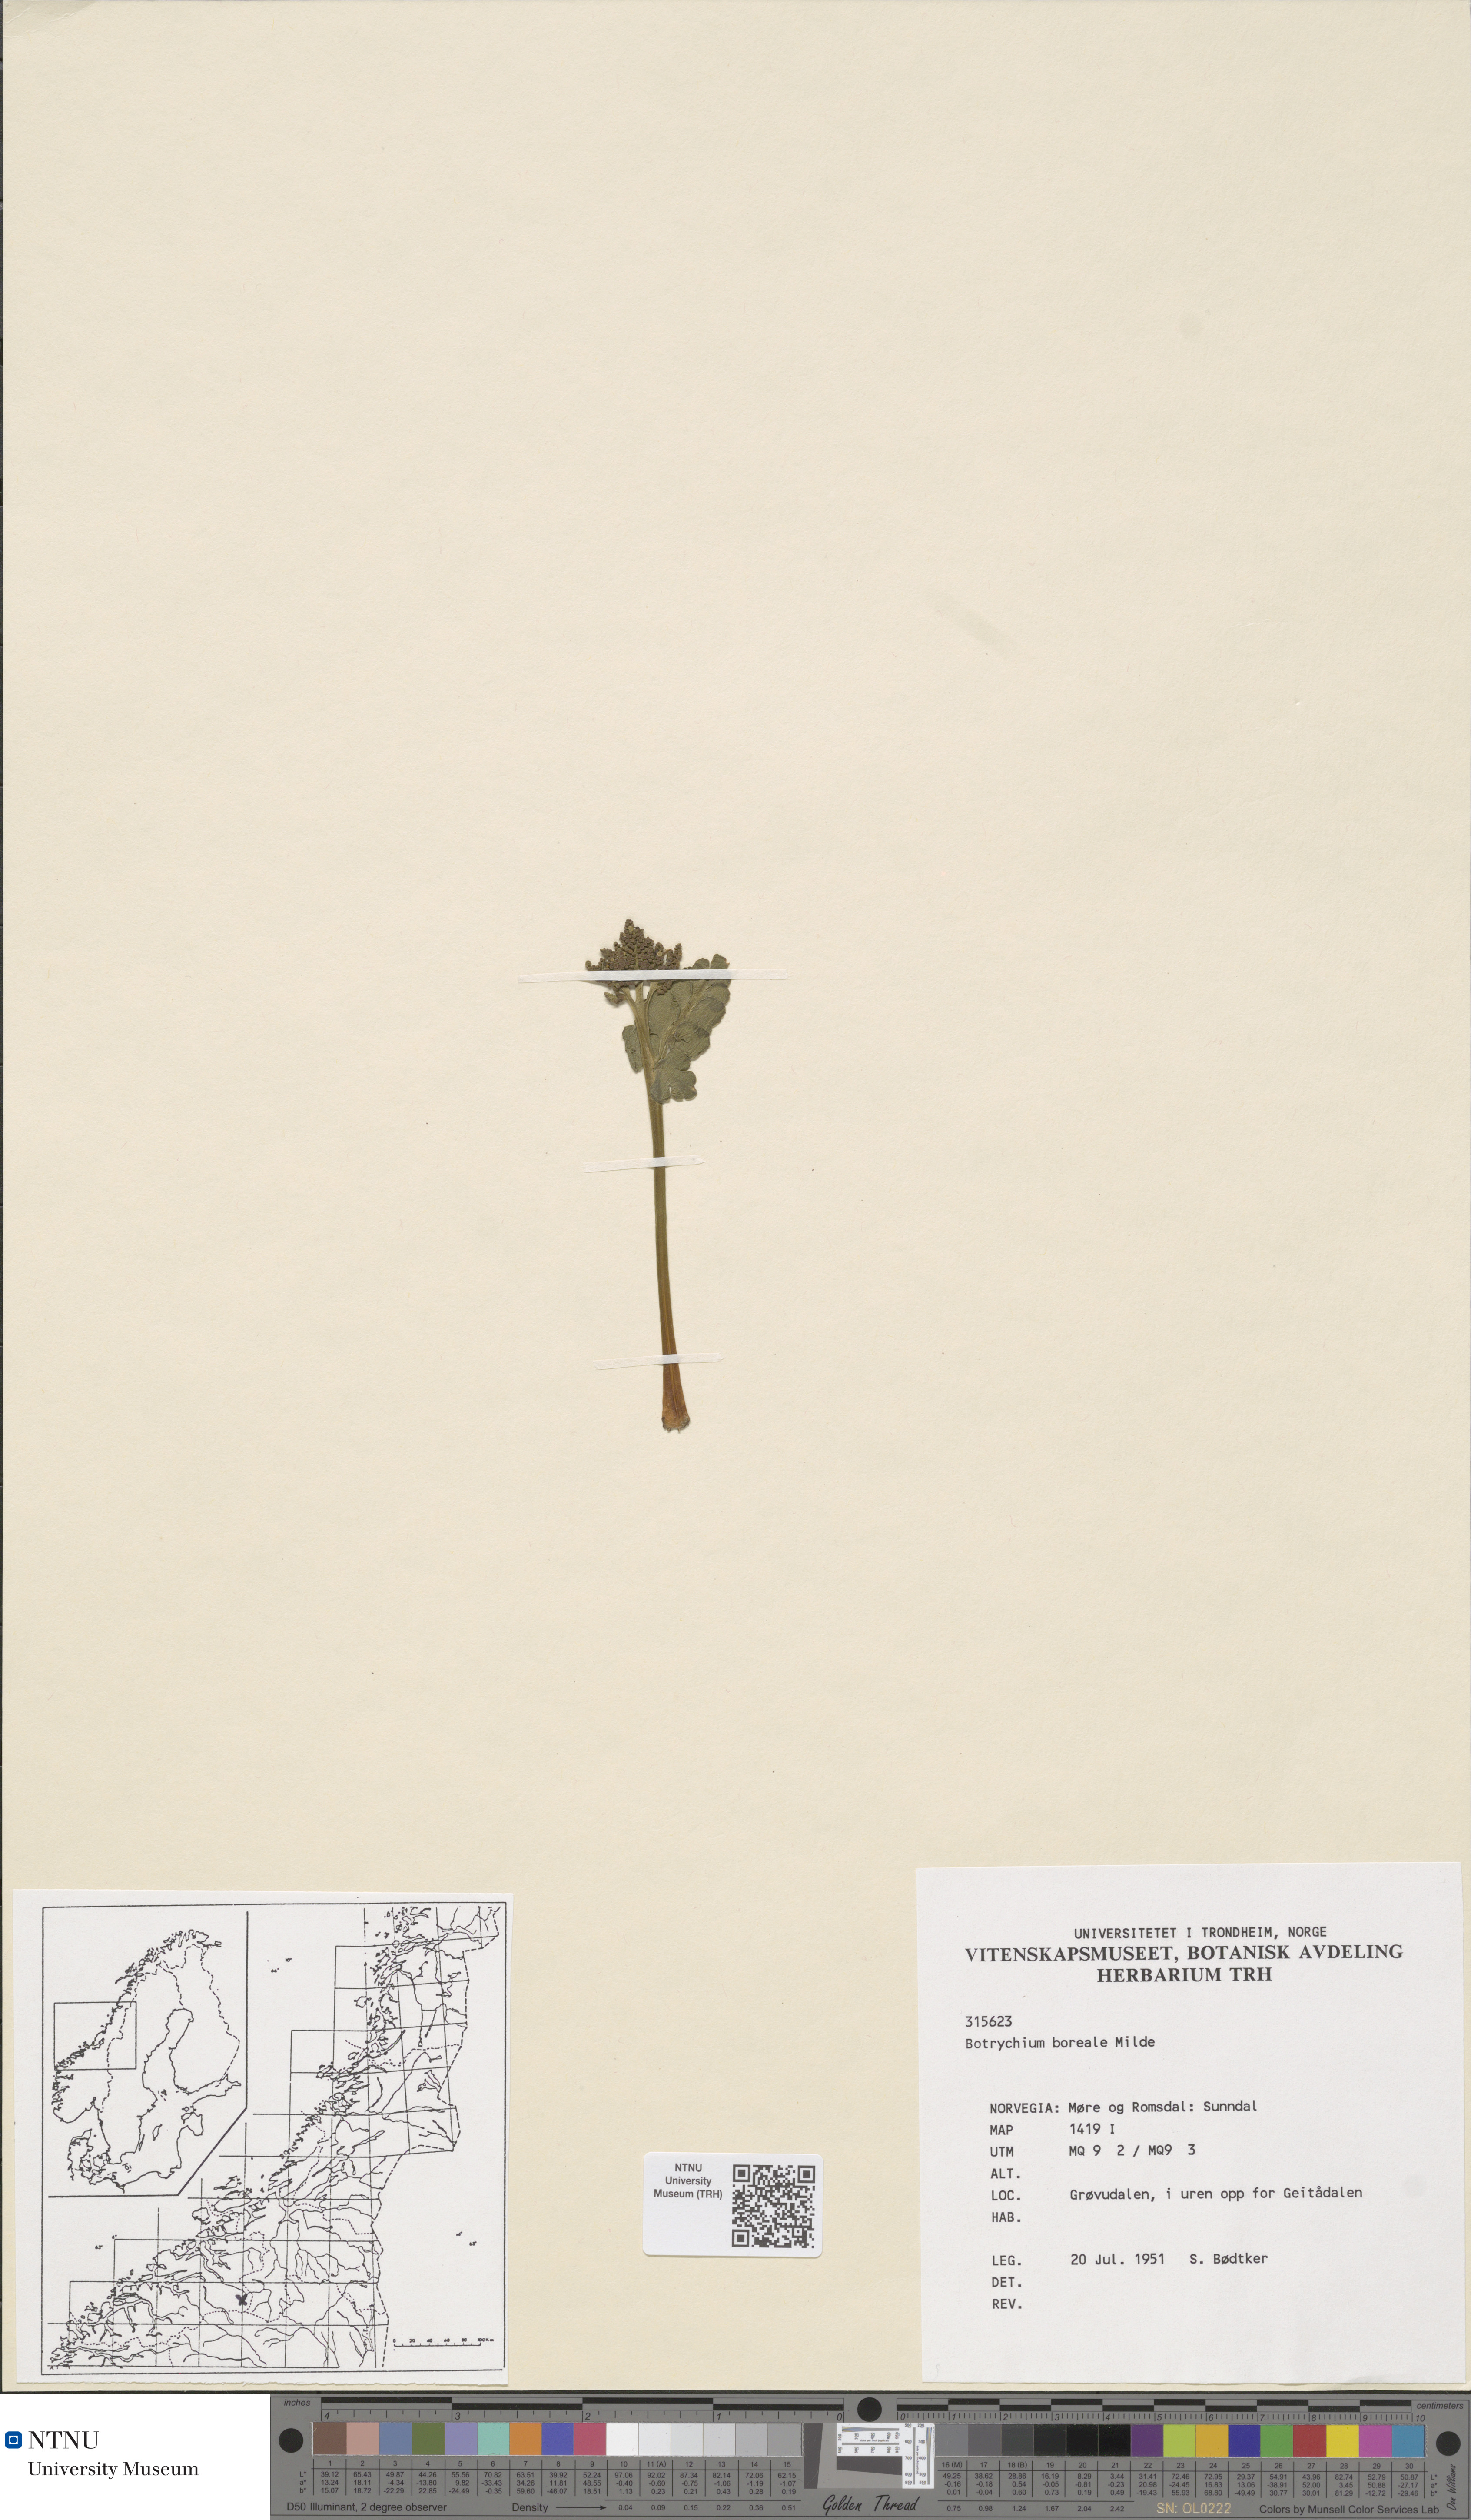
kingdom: Plantae
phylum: Tracheophyta
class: Polypodiopsida
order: Ophioglossales
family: Ophioglossaceae
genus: Botrychium
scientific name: Botrychium boreale
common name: Boreal moonwort
